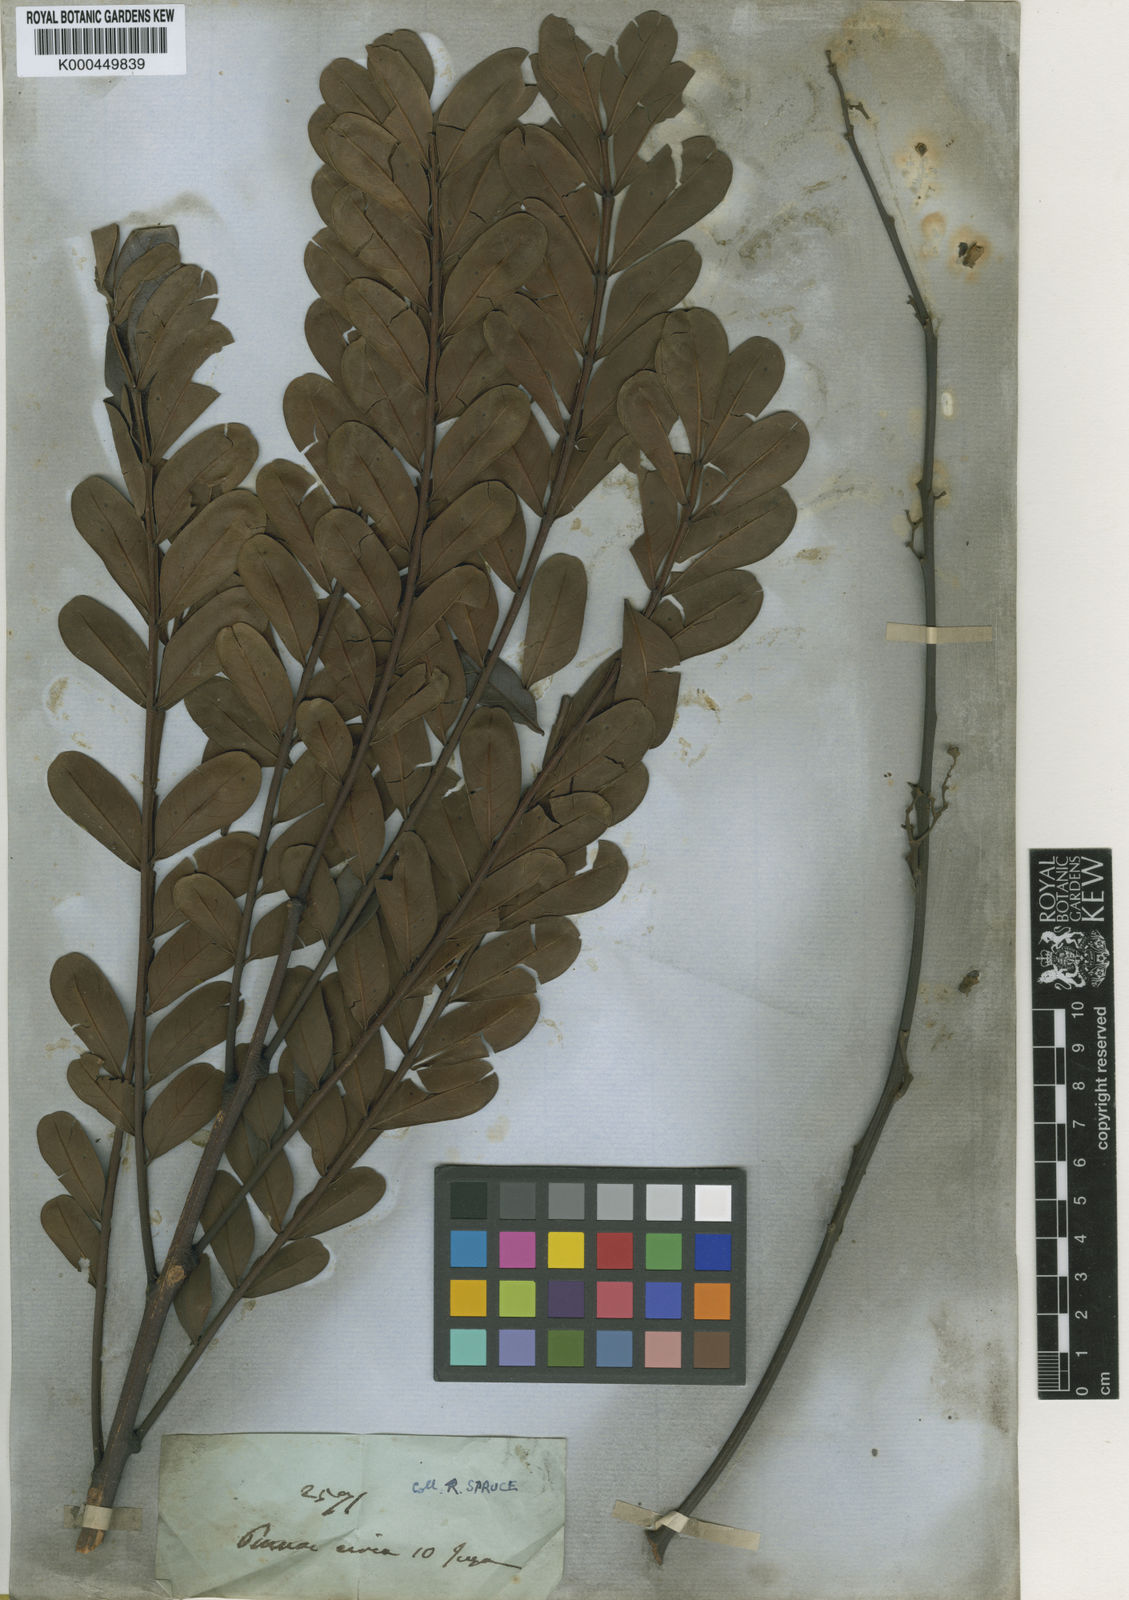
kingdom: Plantae
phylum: Tracheophyta
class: Magnoliopsida
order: Lamiales
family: Bignoniaceae
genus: Jacaranda
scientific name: Jacaranda macrocarpa
